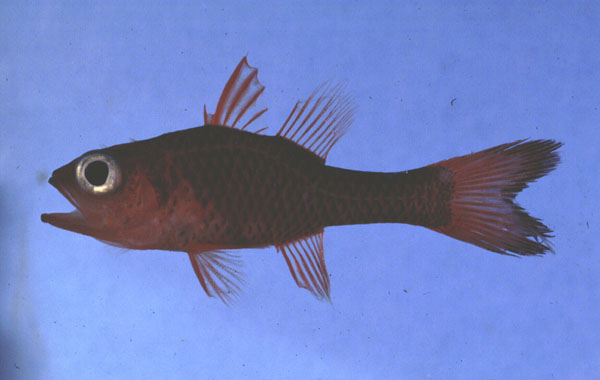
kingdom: Animalia
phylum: Chordata
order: Perciformes
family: Apogonidae
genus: Apogon
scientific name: Apogon crassiceps
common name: Little red cardinalfish
